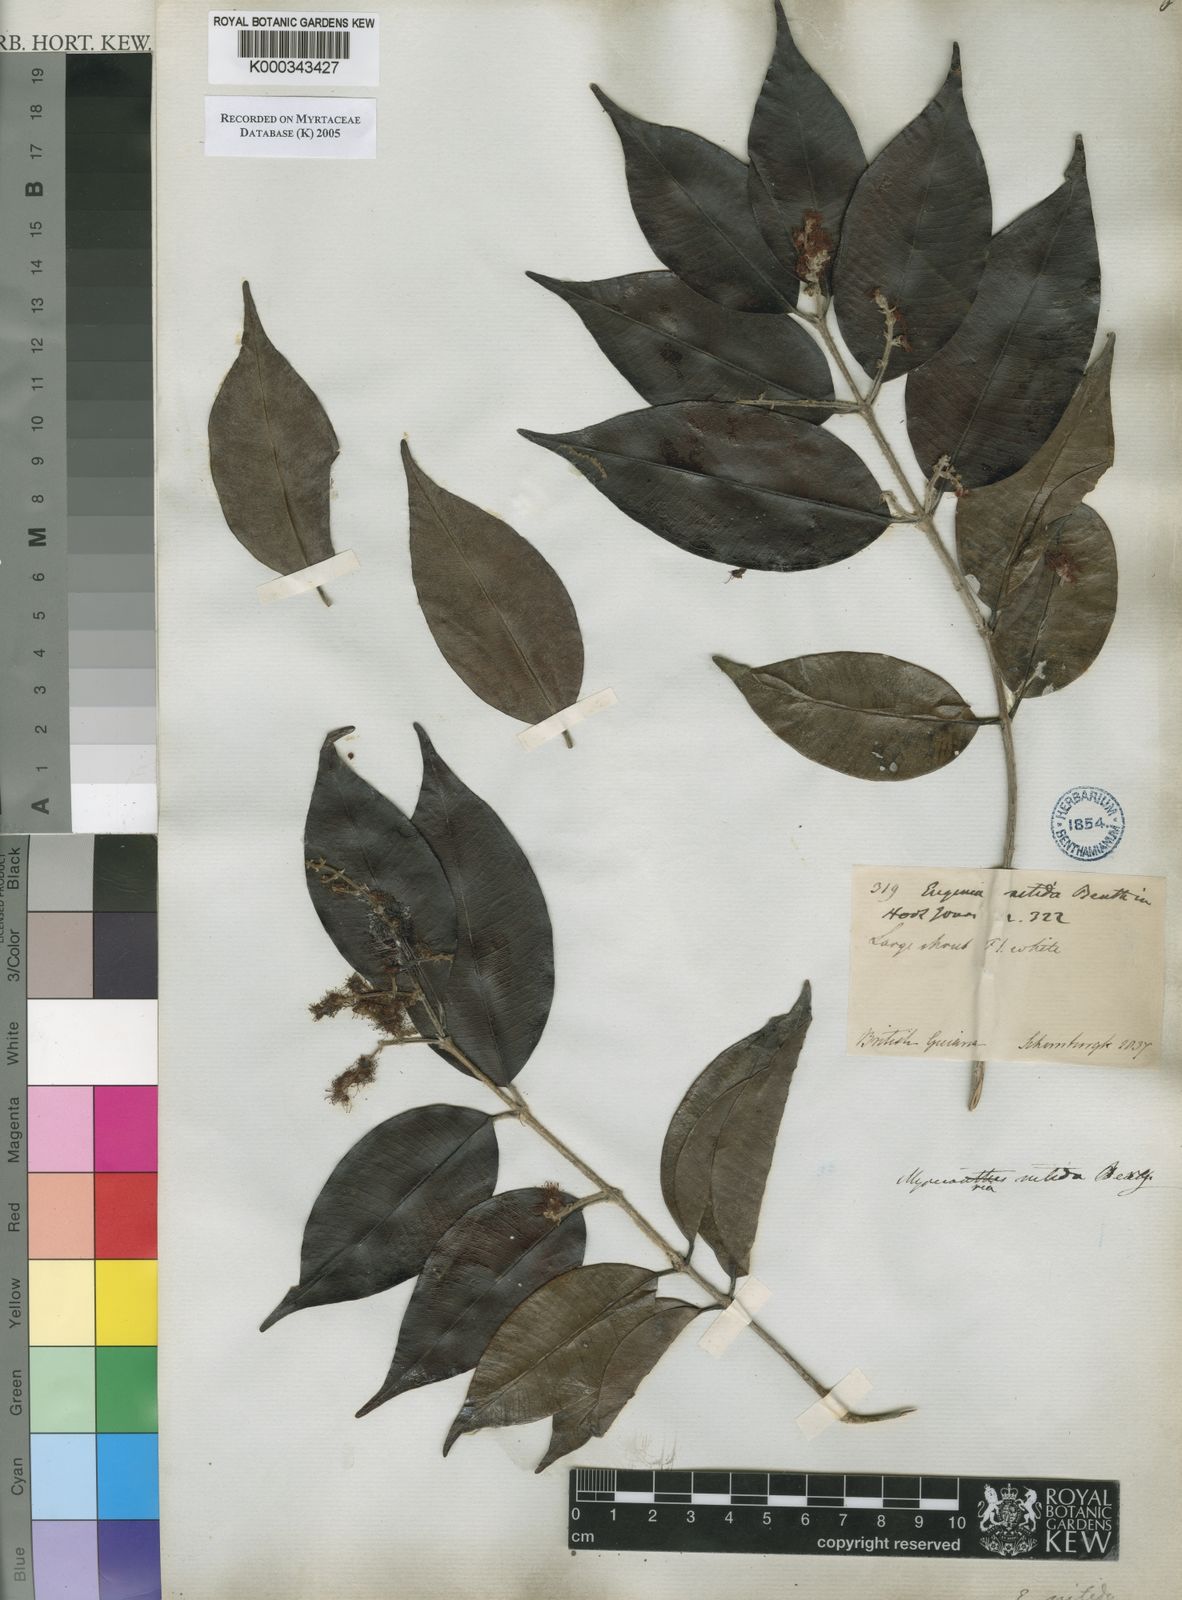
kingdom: Plantae
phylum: Tracheophyta
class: Magnoliopsida
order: Myrtales
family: Myrtaceae
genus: Myrcia
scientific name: Myrcia
